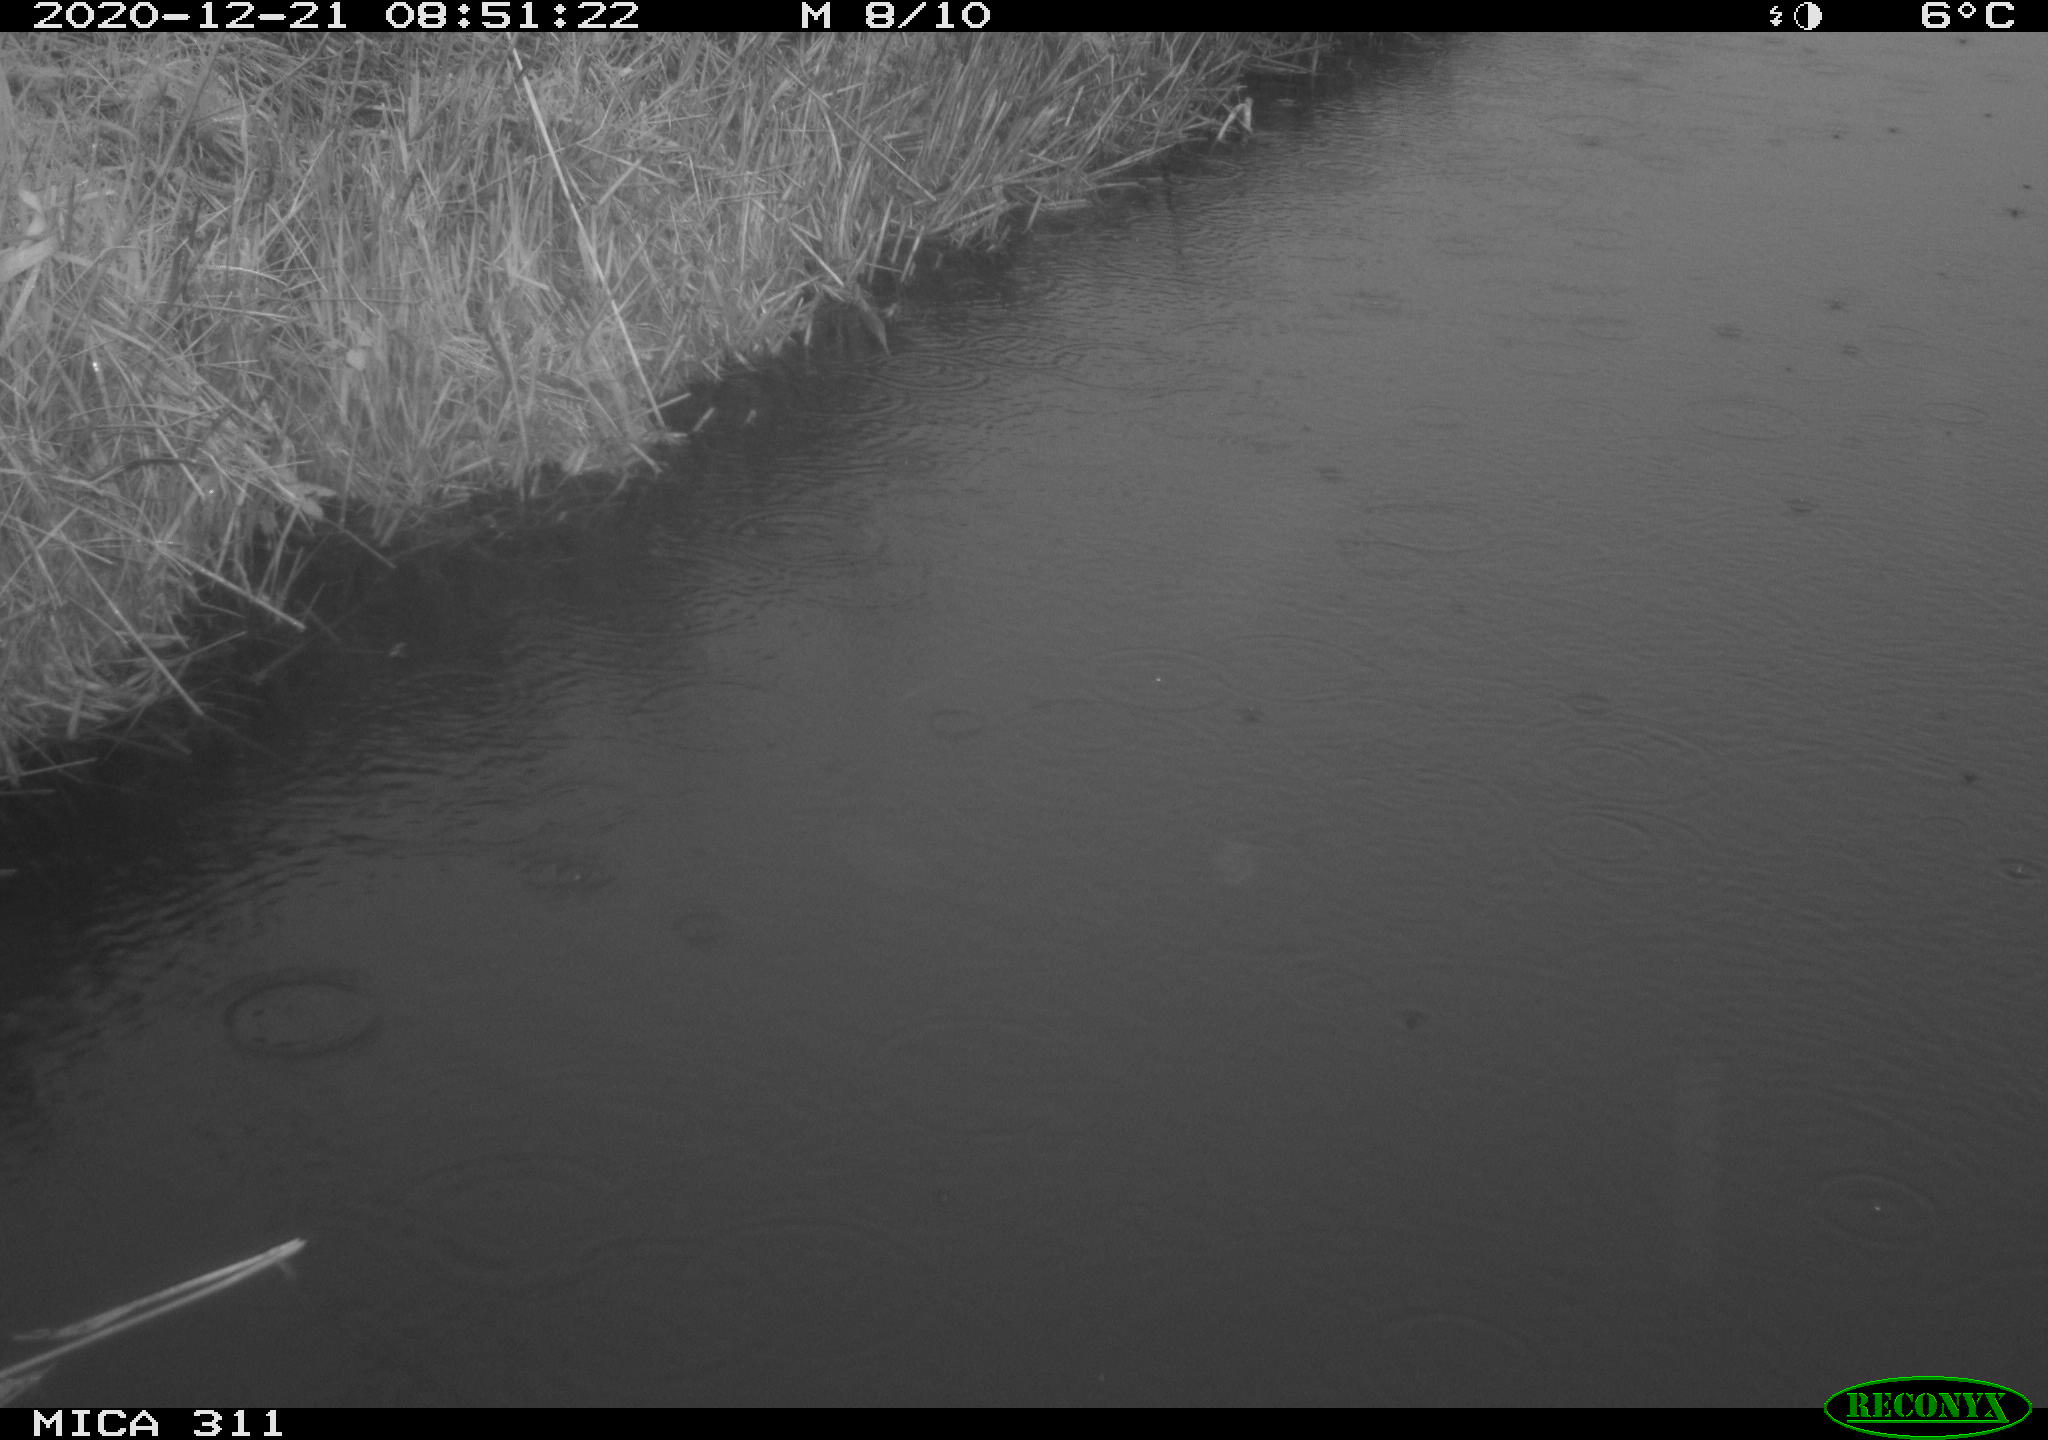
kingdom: Animalia
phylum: Chordata
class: Aves
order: Gruiformes
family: Rallidae
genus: Gallinula
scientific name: Gallinula chloropus
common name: Common moorhen
